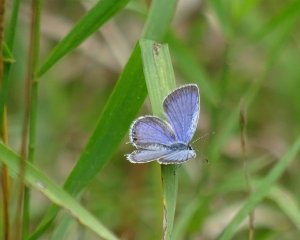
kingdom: Animalia
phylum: Arthropoda
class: Insecta
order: Lepidoptera
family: Lycaenidae
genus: Elkalyce
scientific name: Elkalyce comyntas
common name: Eastern Tailed-Blue
